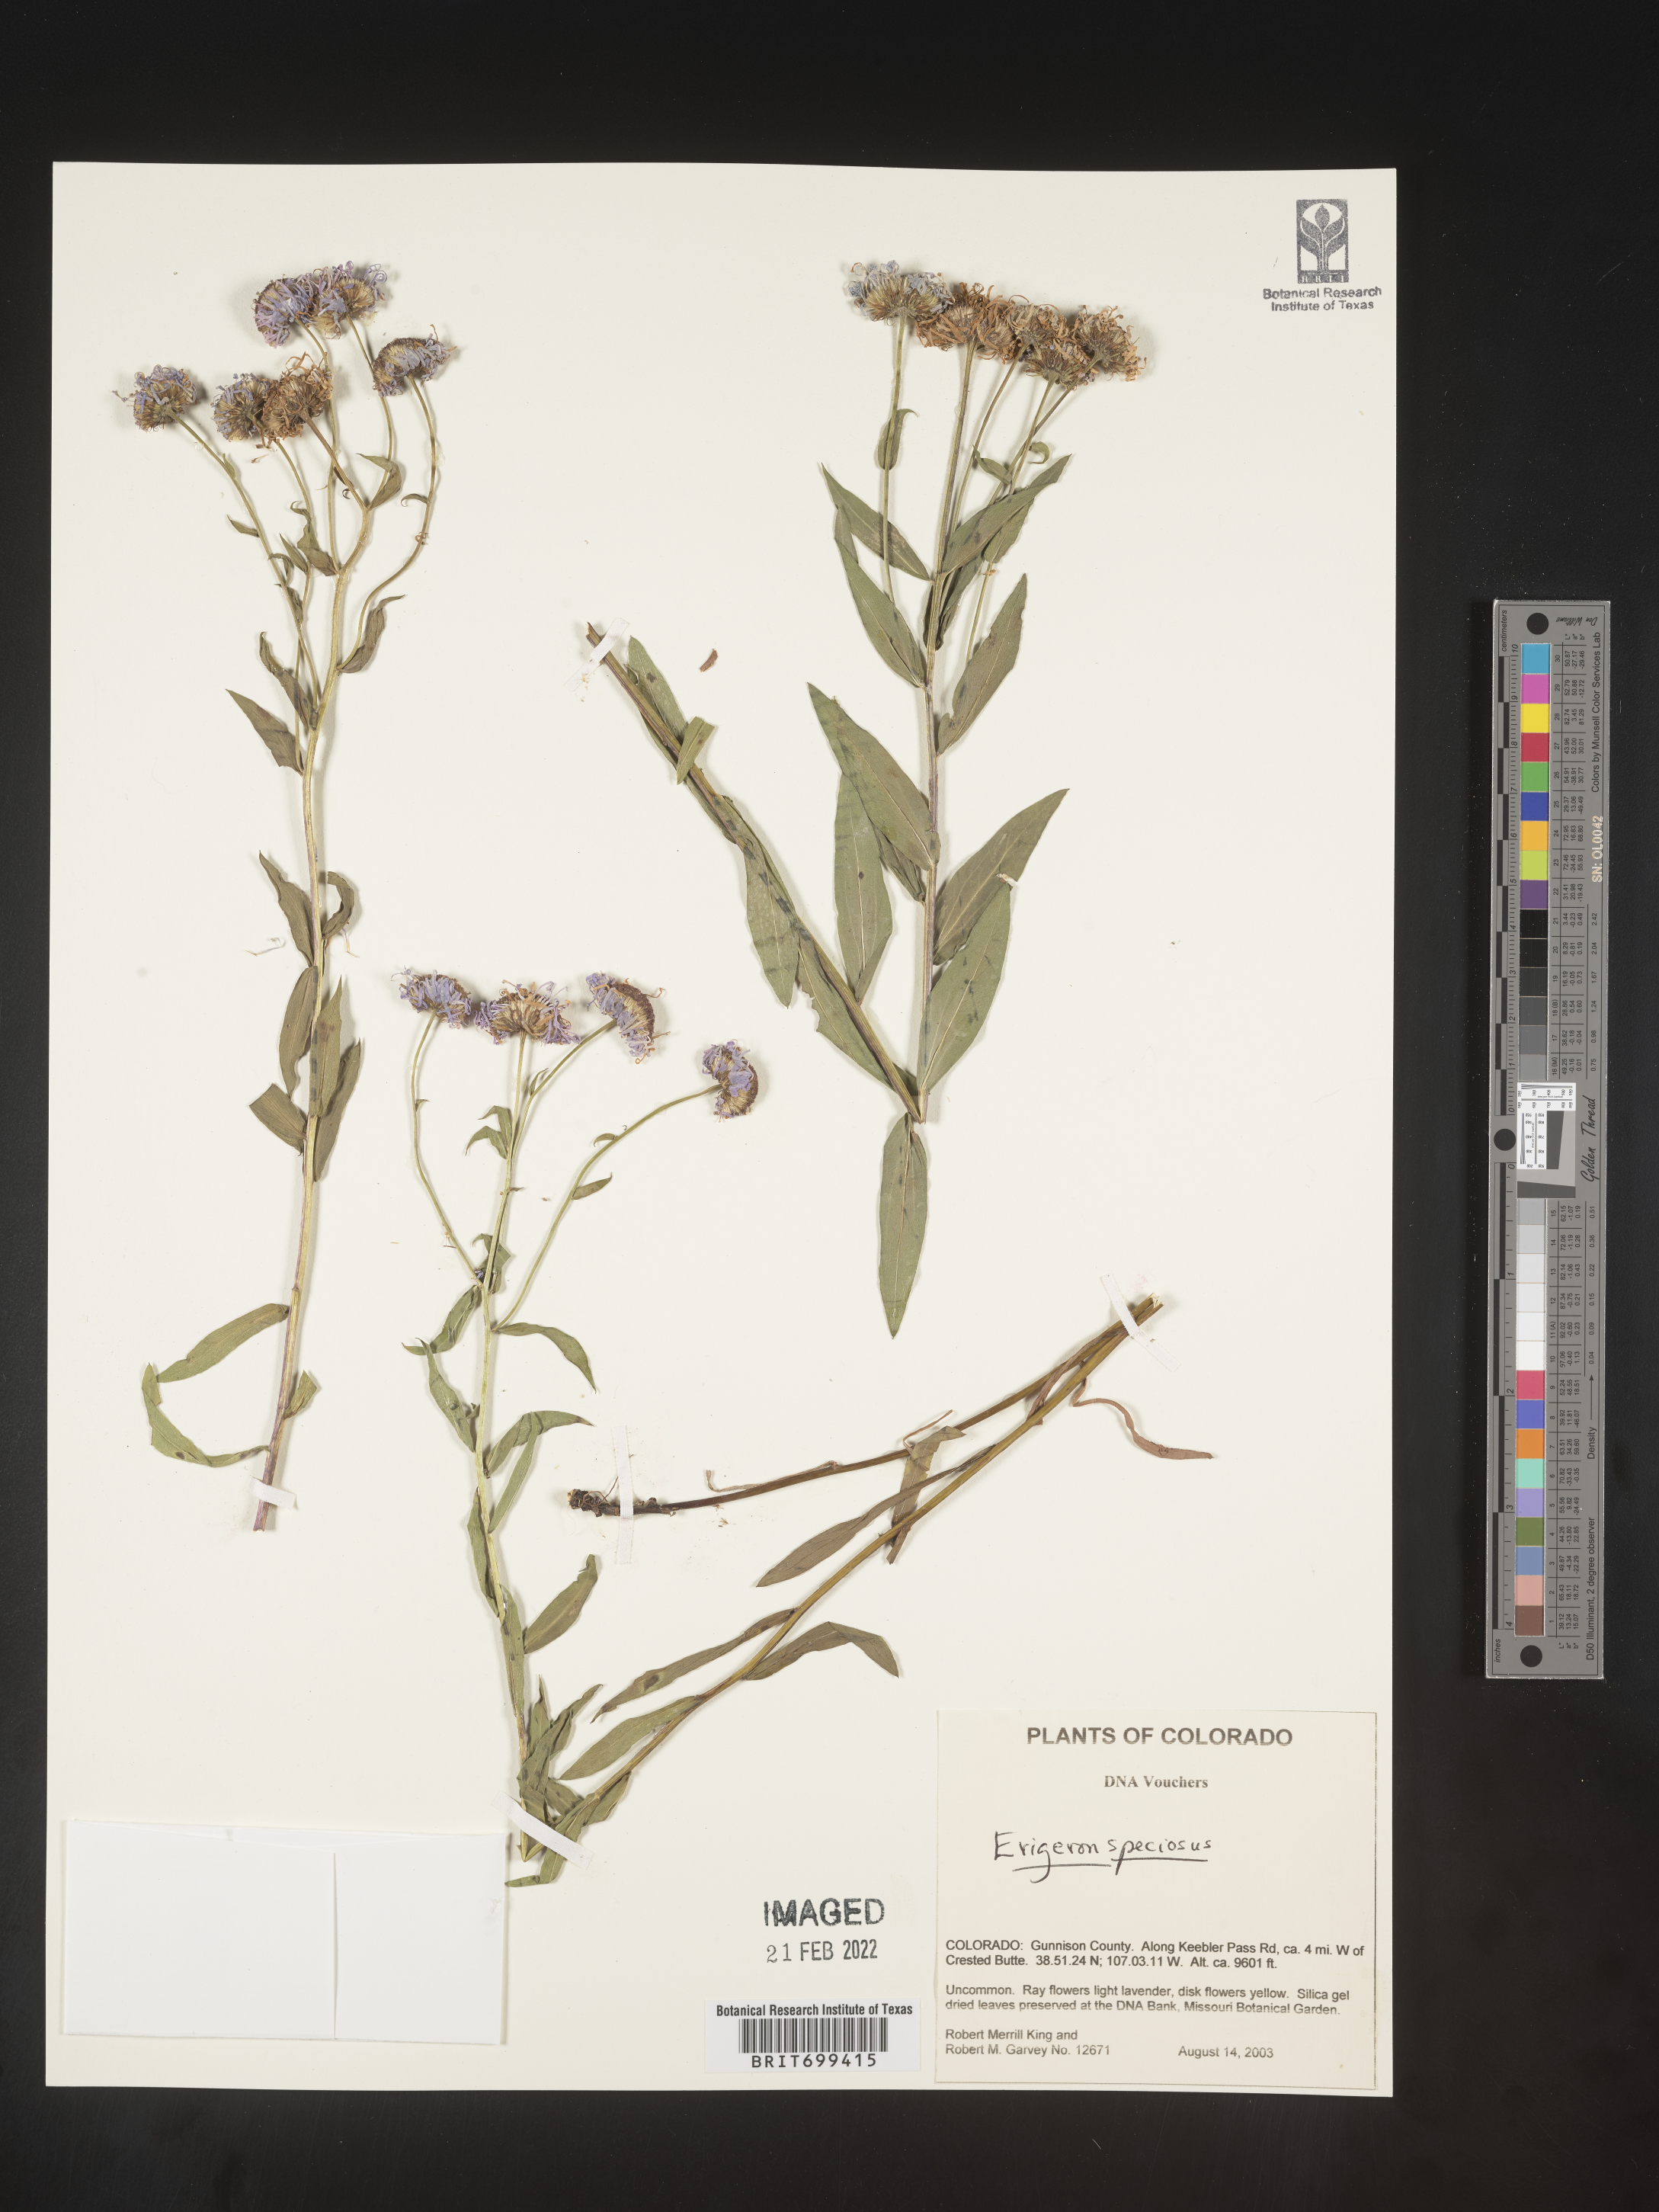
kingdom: Plantae
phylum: Tracheophyta
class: Magnoliopsida
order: Asterales
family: Asteraceae
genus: Erigeron
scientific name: Erigeron speciosus
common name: Aspen fleabane
